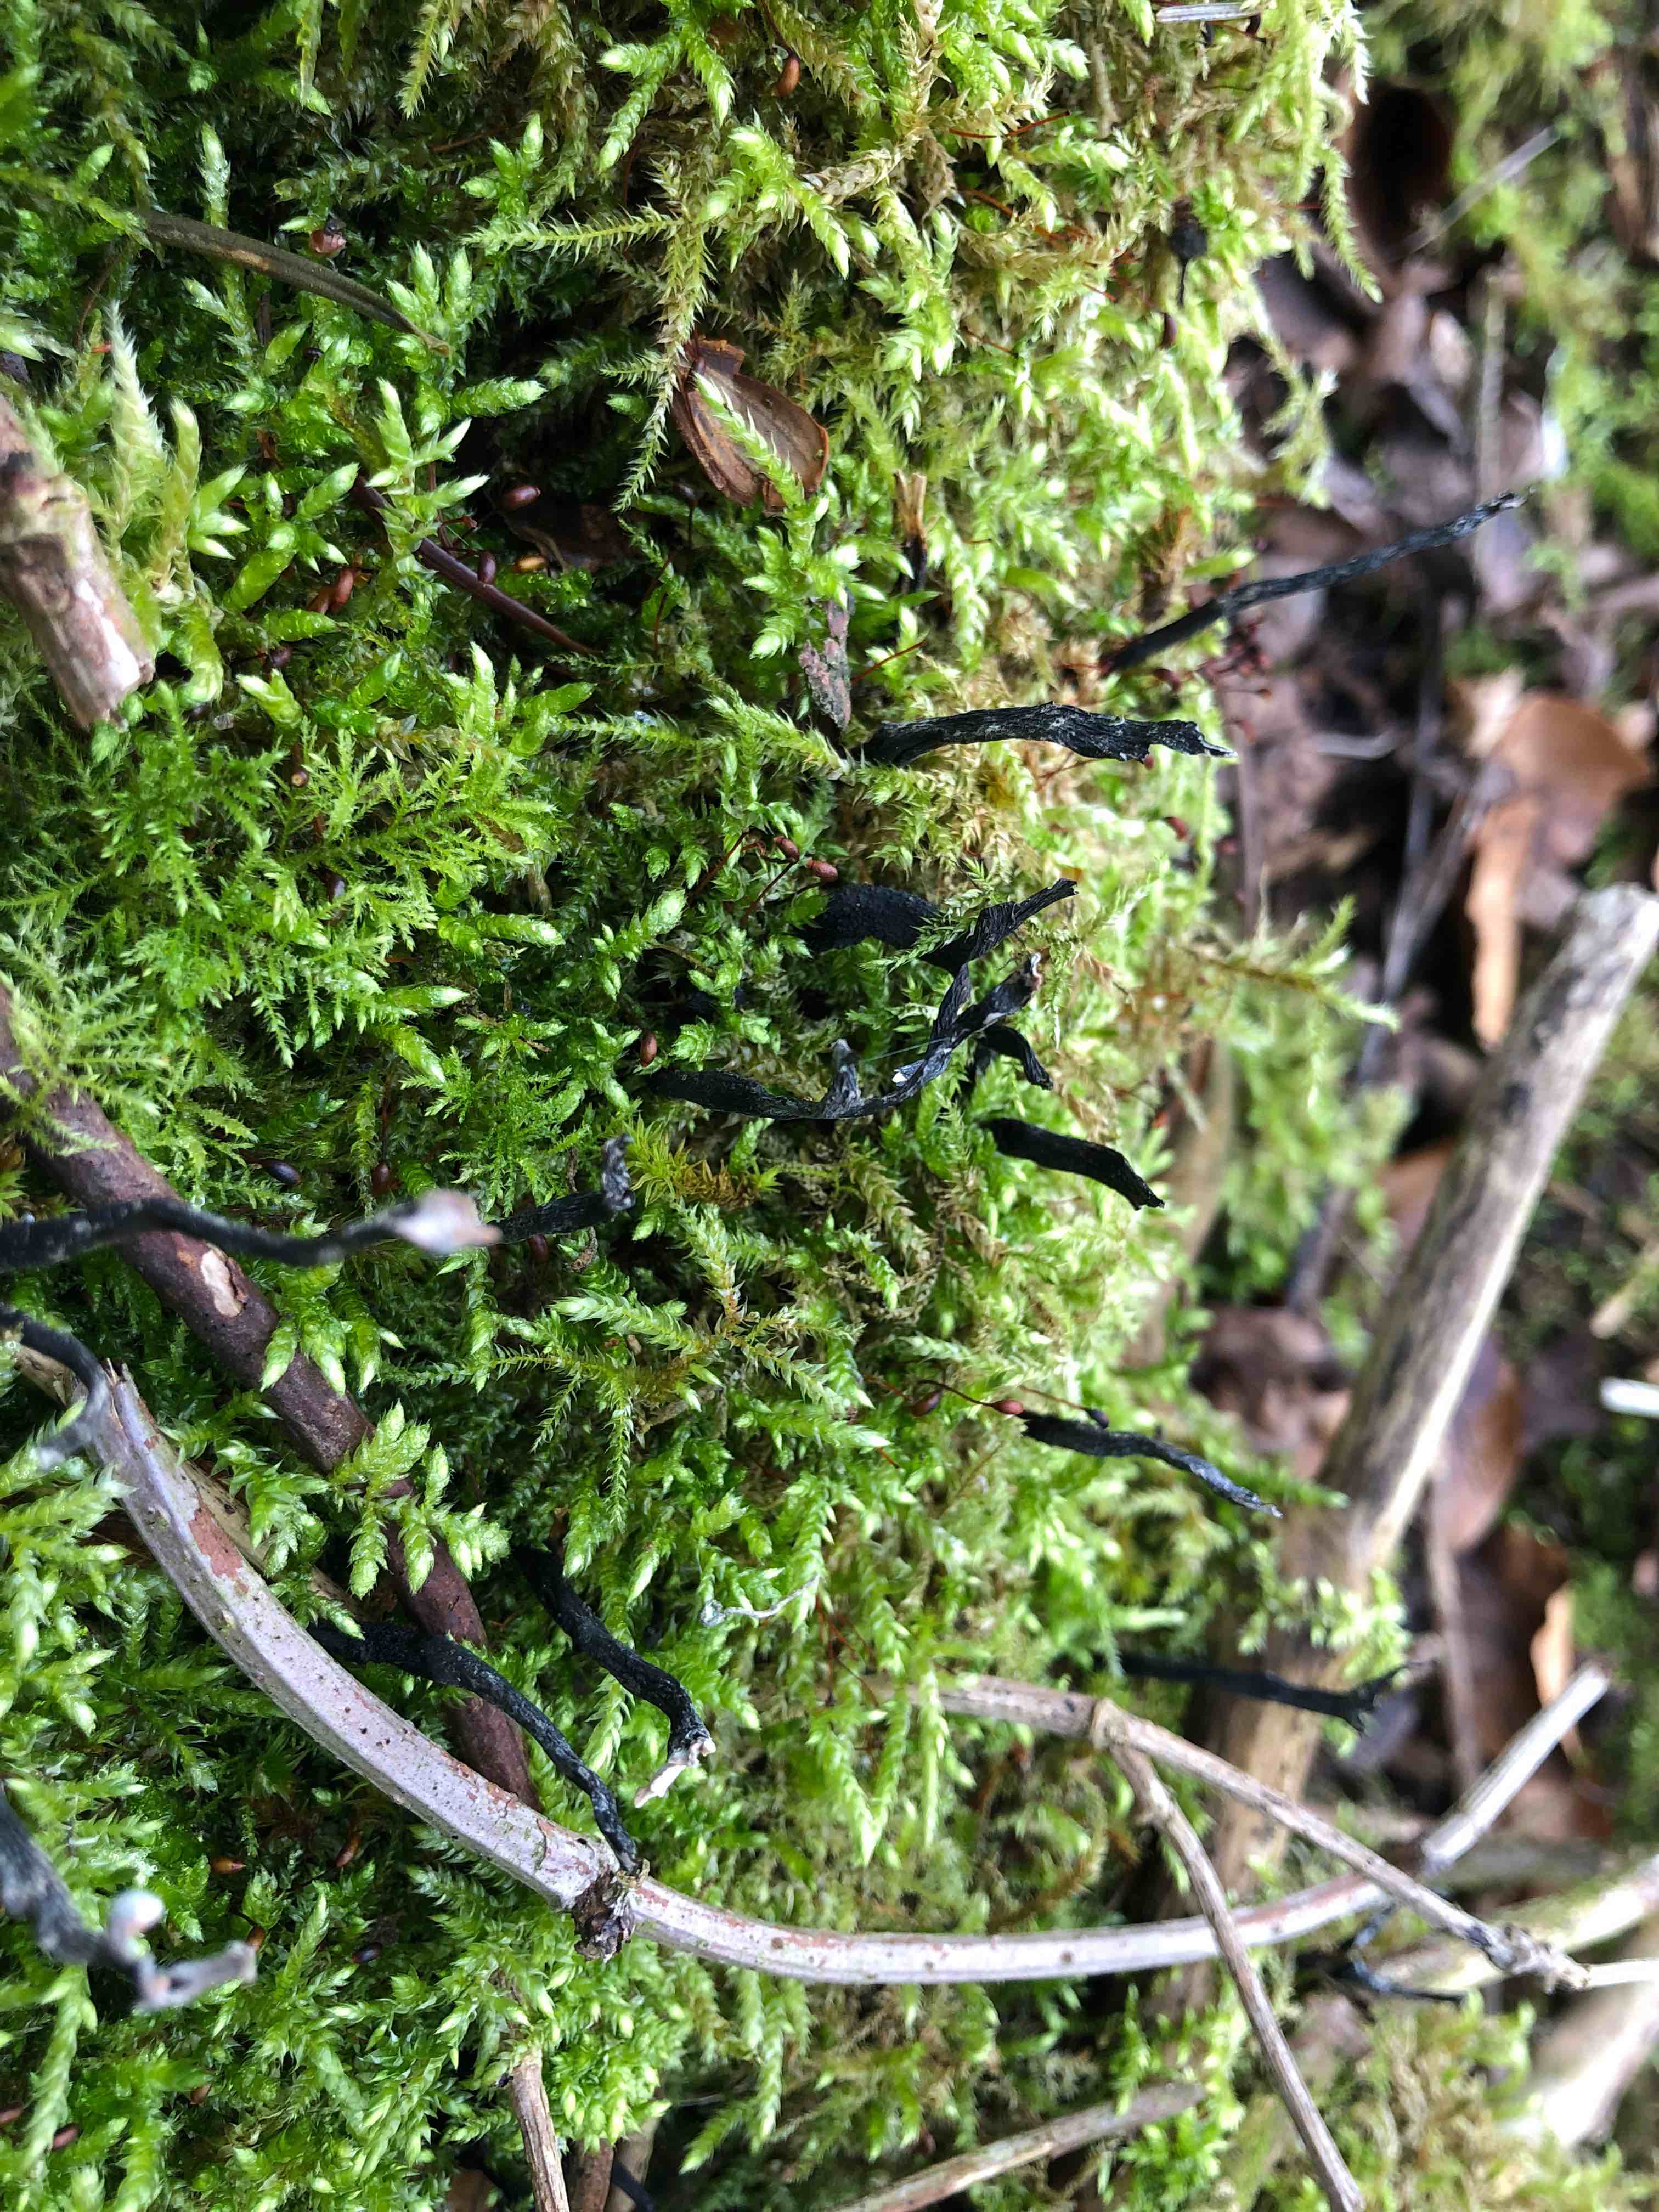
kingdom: Fungi
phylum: Ascomycota
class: Sordariomycetes
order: Xylariales
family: Xylariaceae
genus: Xylaria
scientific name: Xylaria hypoxylon
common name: grenet stødsvamp
